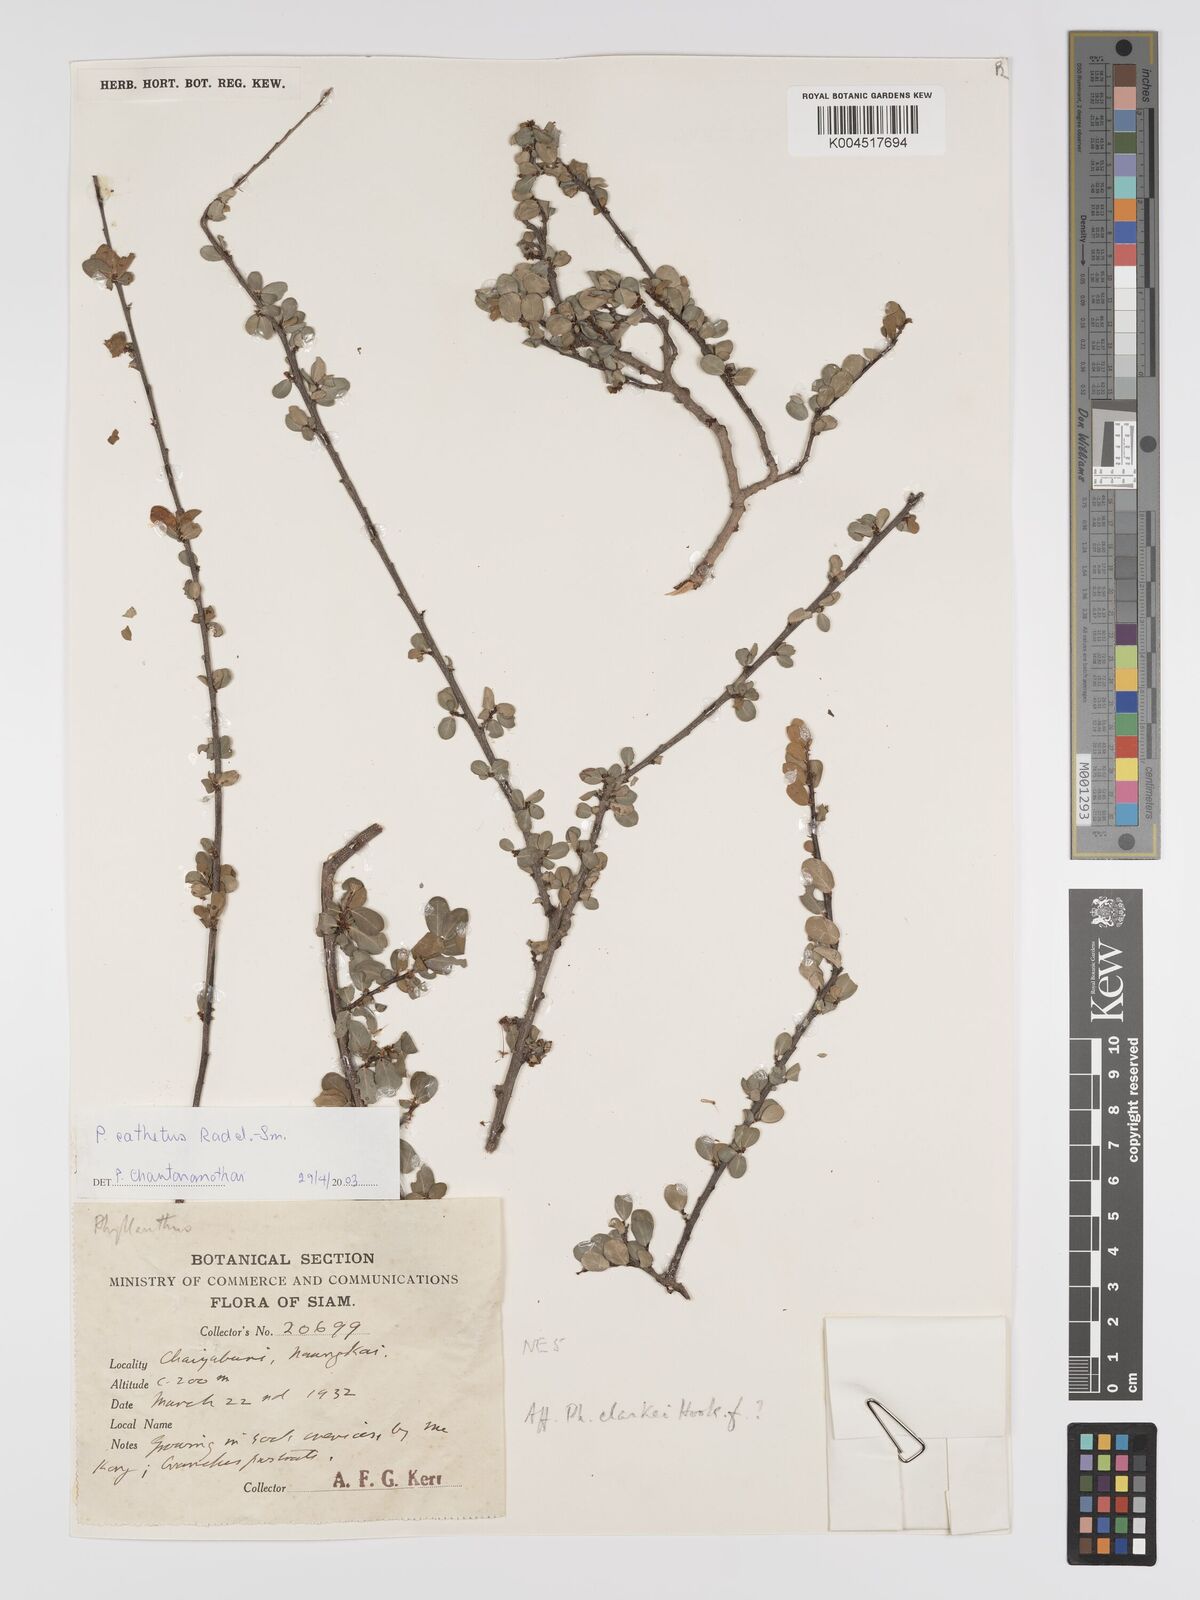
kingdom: Plantae
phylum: Tracheophyta
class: Magnoliopsida
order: Malpighiales
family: Phyllanthaceae
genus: Phyllanthus
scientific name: Phyllanthus cochinchinensis
